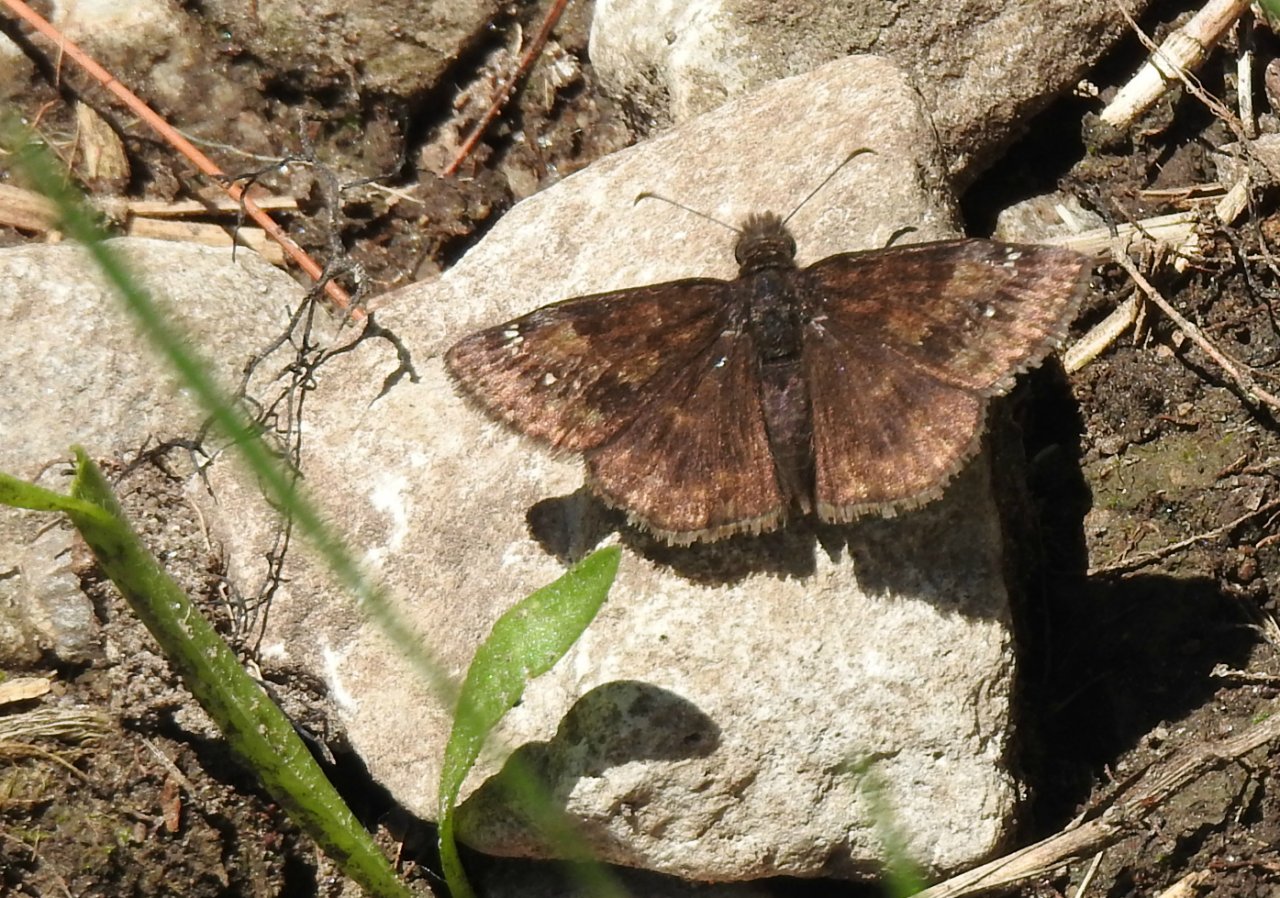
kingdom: Animalia
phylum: Arthropoda
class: Insecta
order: Lepidoptera
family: Hesperiidae
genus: Gesta
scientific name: Gesta
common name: Wild Indigo Duskywing
